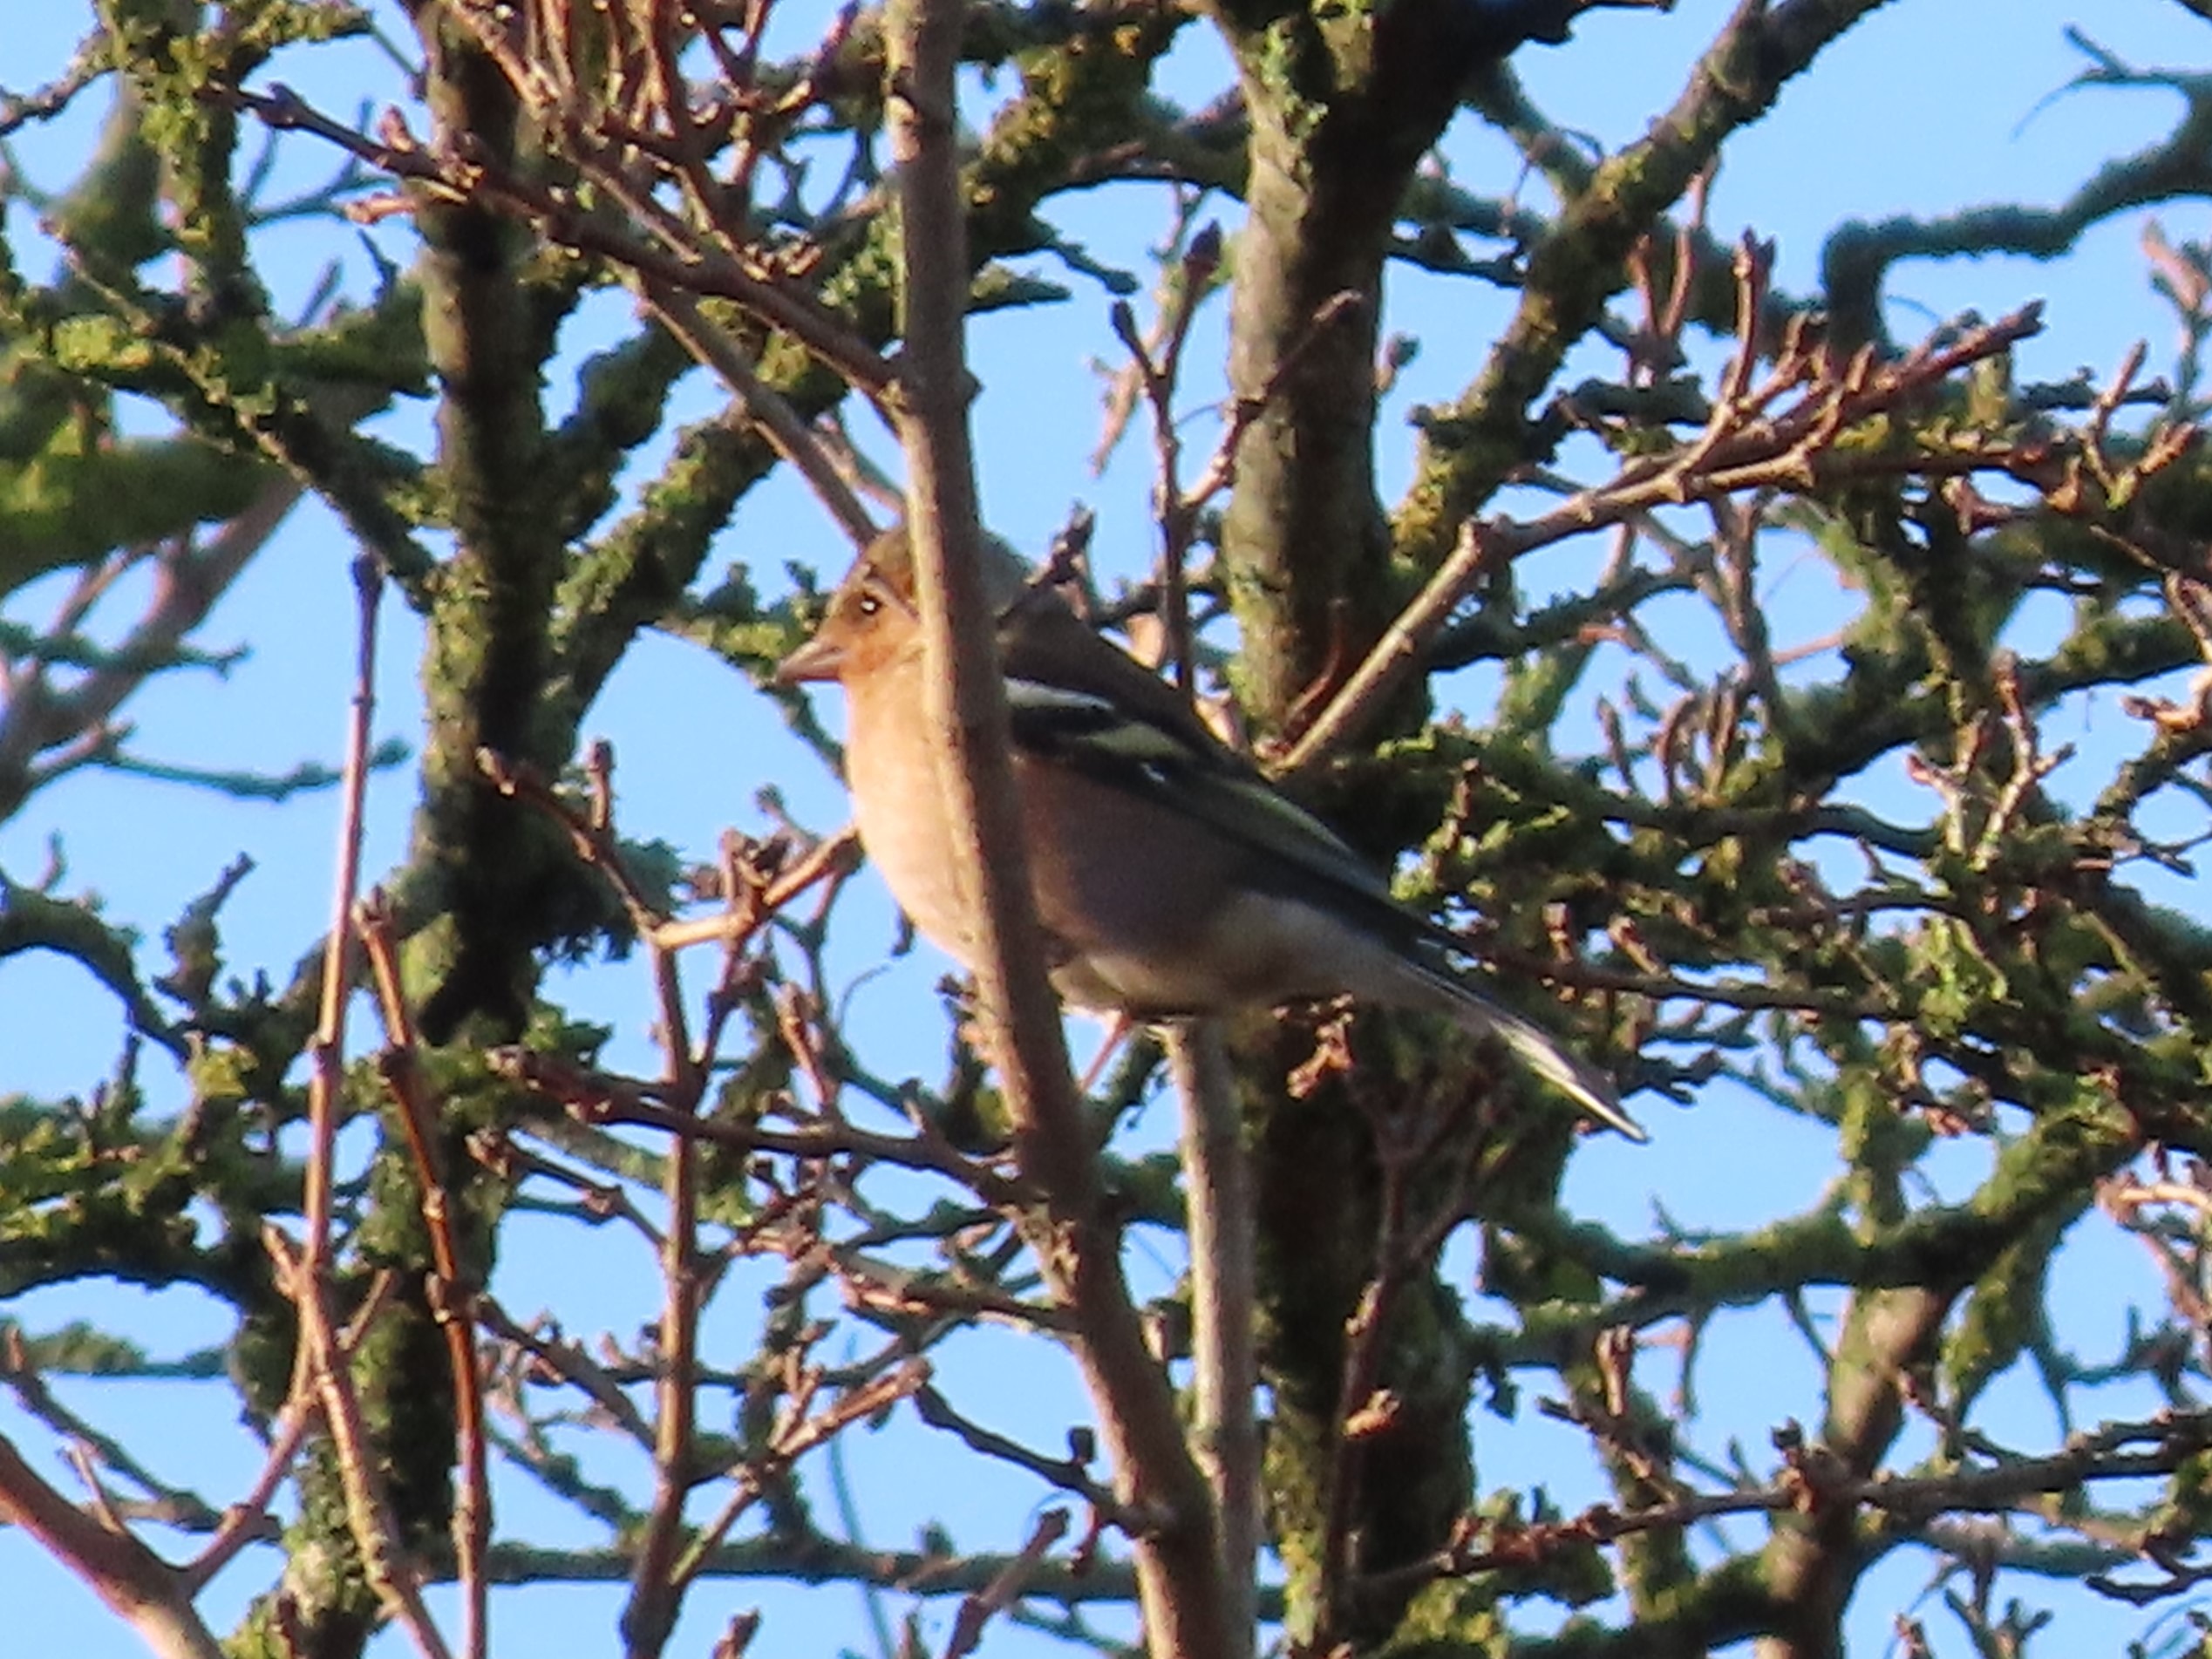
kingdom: Animalia
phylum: Chordata
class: Aves
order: Passeriformes
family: Fringillidae
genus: Fringilla
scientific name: Fringilla coelebs
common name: Bogfinke
